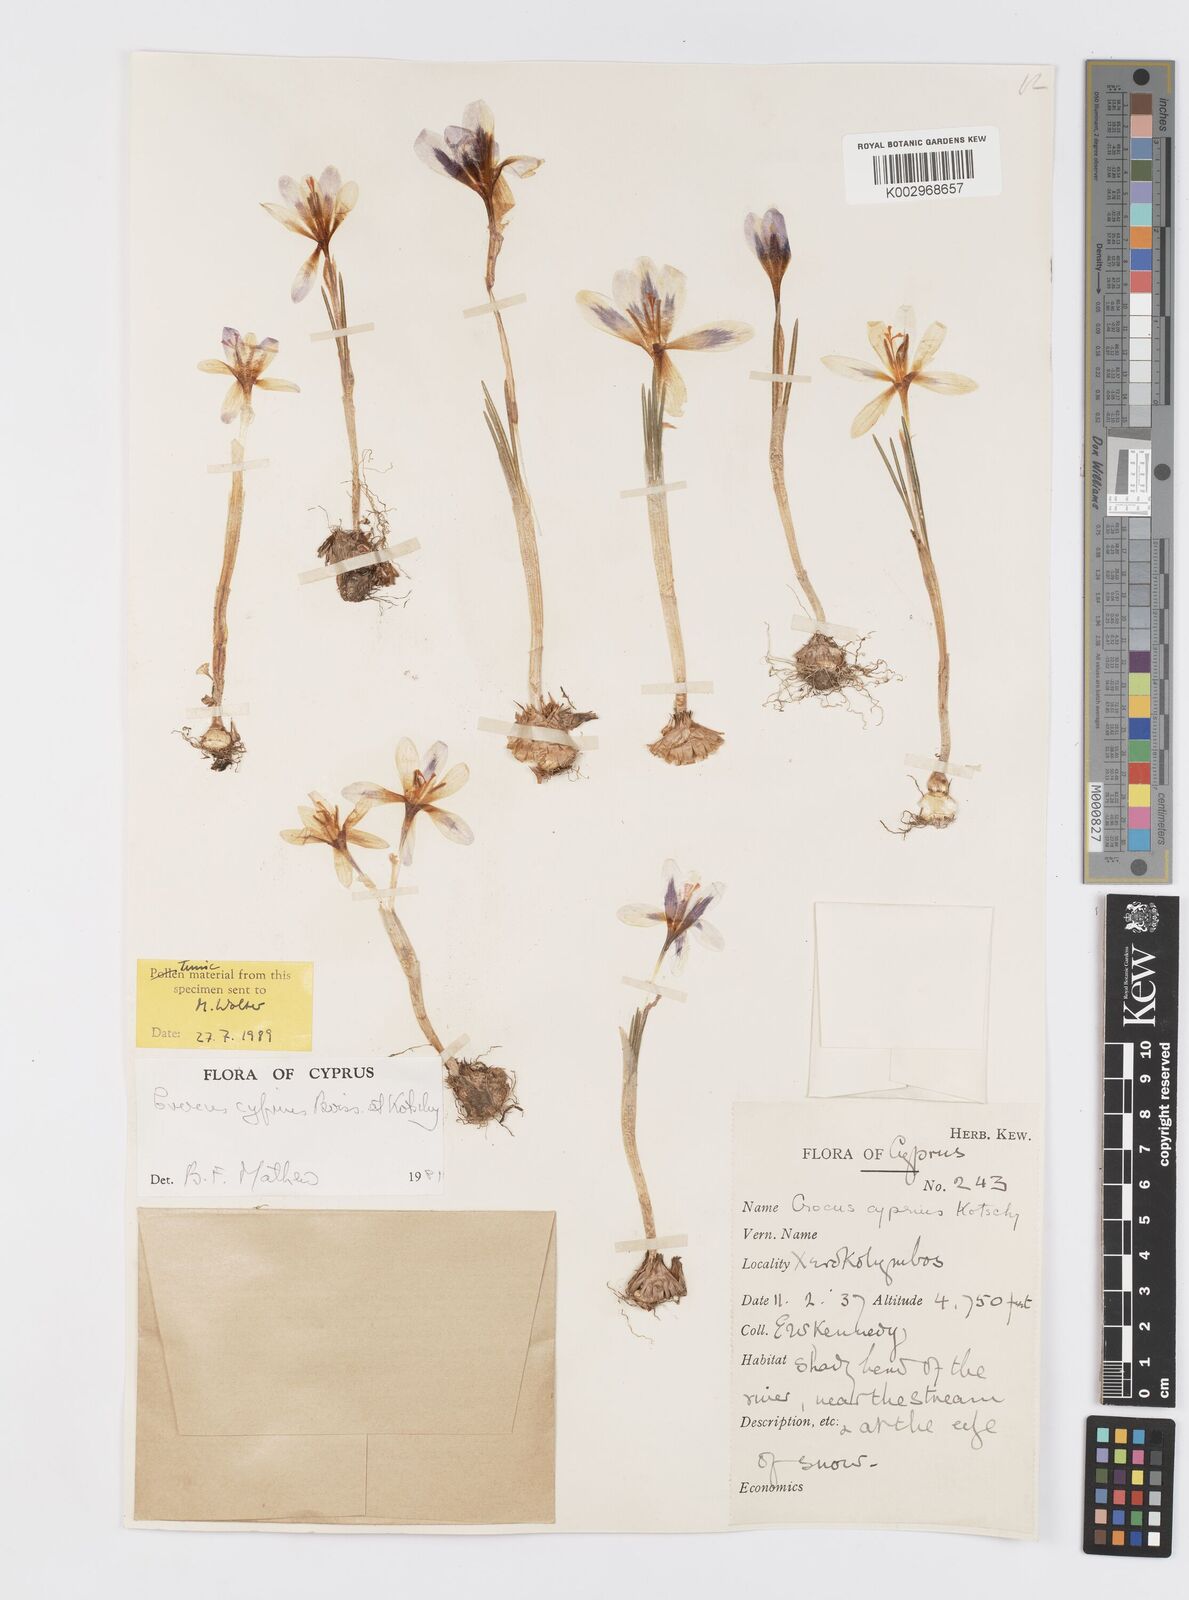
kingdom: Plantae
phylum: Tracheophyta
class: Liliopsida
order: Asparagales
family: Iridaceae
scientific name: Iridaceae
